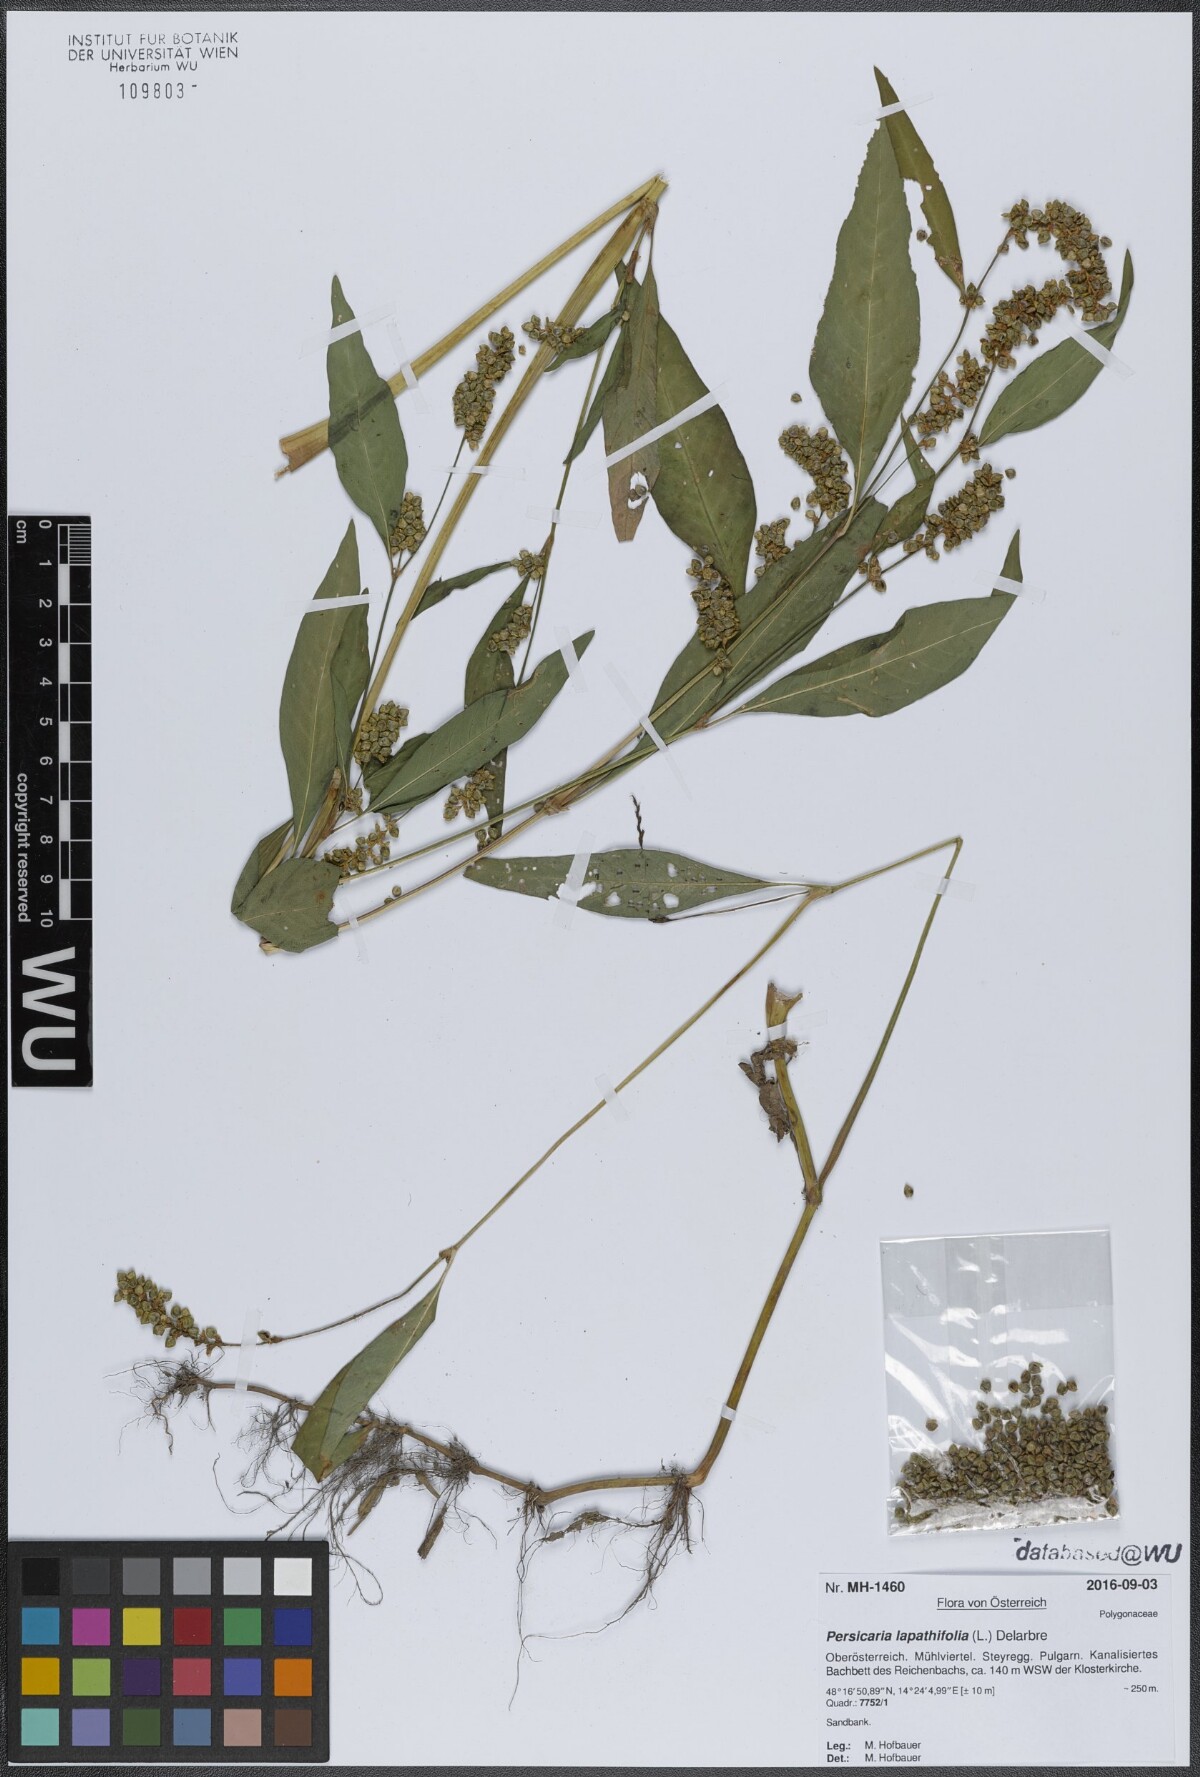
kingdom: Plantae
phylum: Tracheophyta
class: Magnoliopsida
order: Caryophyllales
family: Polygonaceae
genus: Persicaria
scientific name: Persicaria lapathifolia
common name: Curlytop knotweed
